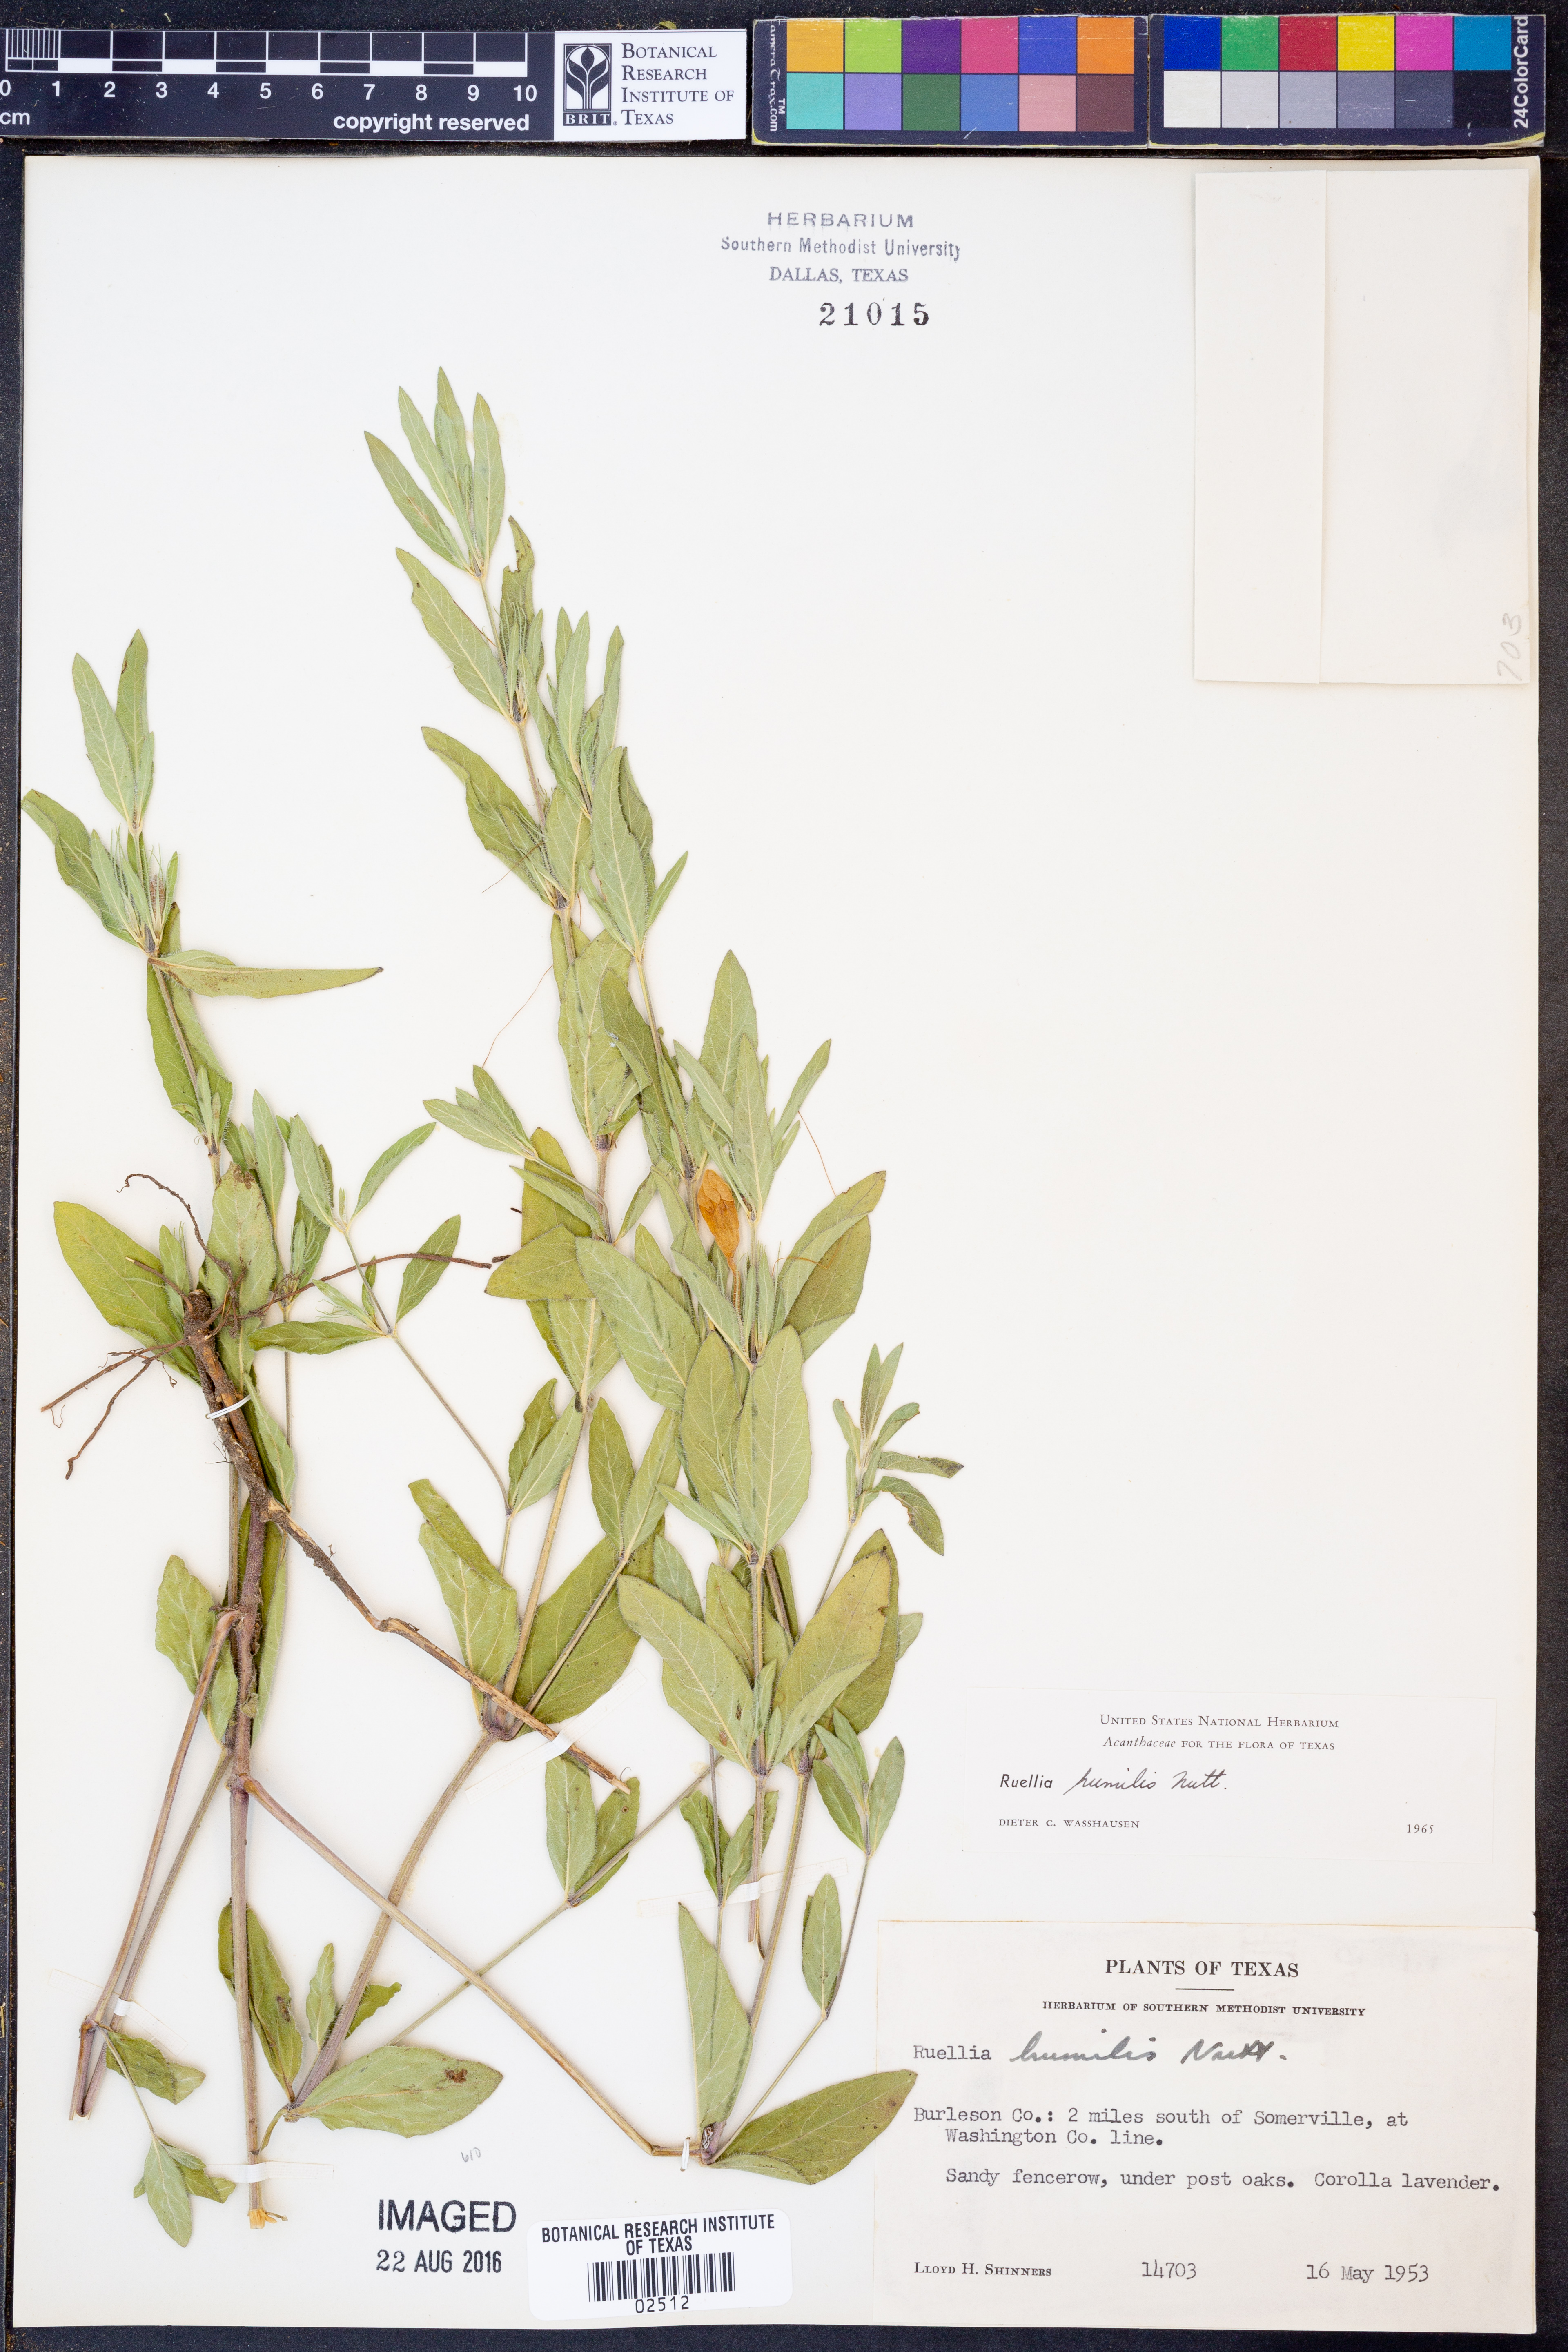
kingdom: Plantae
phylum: Tracheophyta
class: Magnoliopsida
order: Lamiales
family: Acanthaceae
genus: Ruellia
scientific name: Ruellia humilis
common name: Fringe-leaf ruellia
